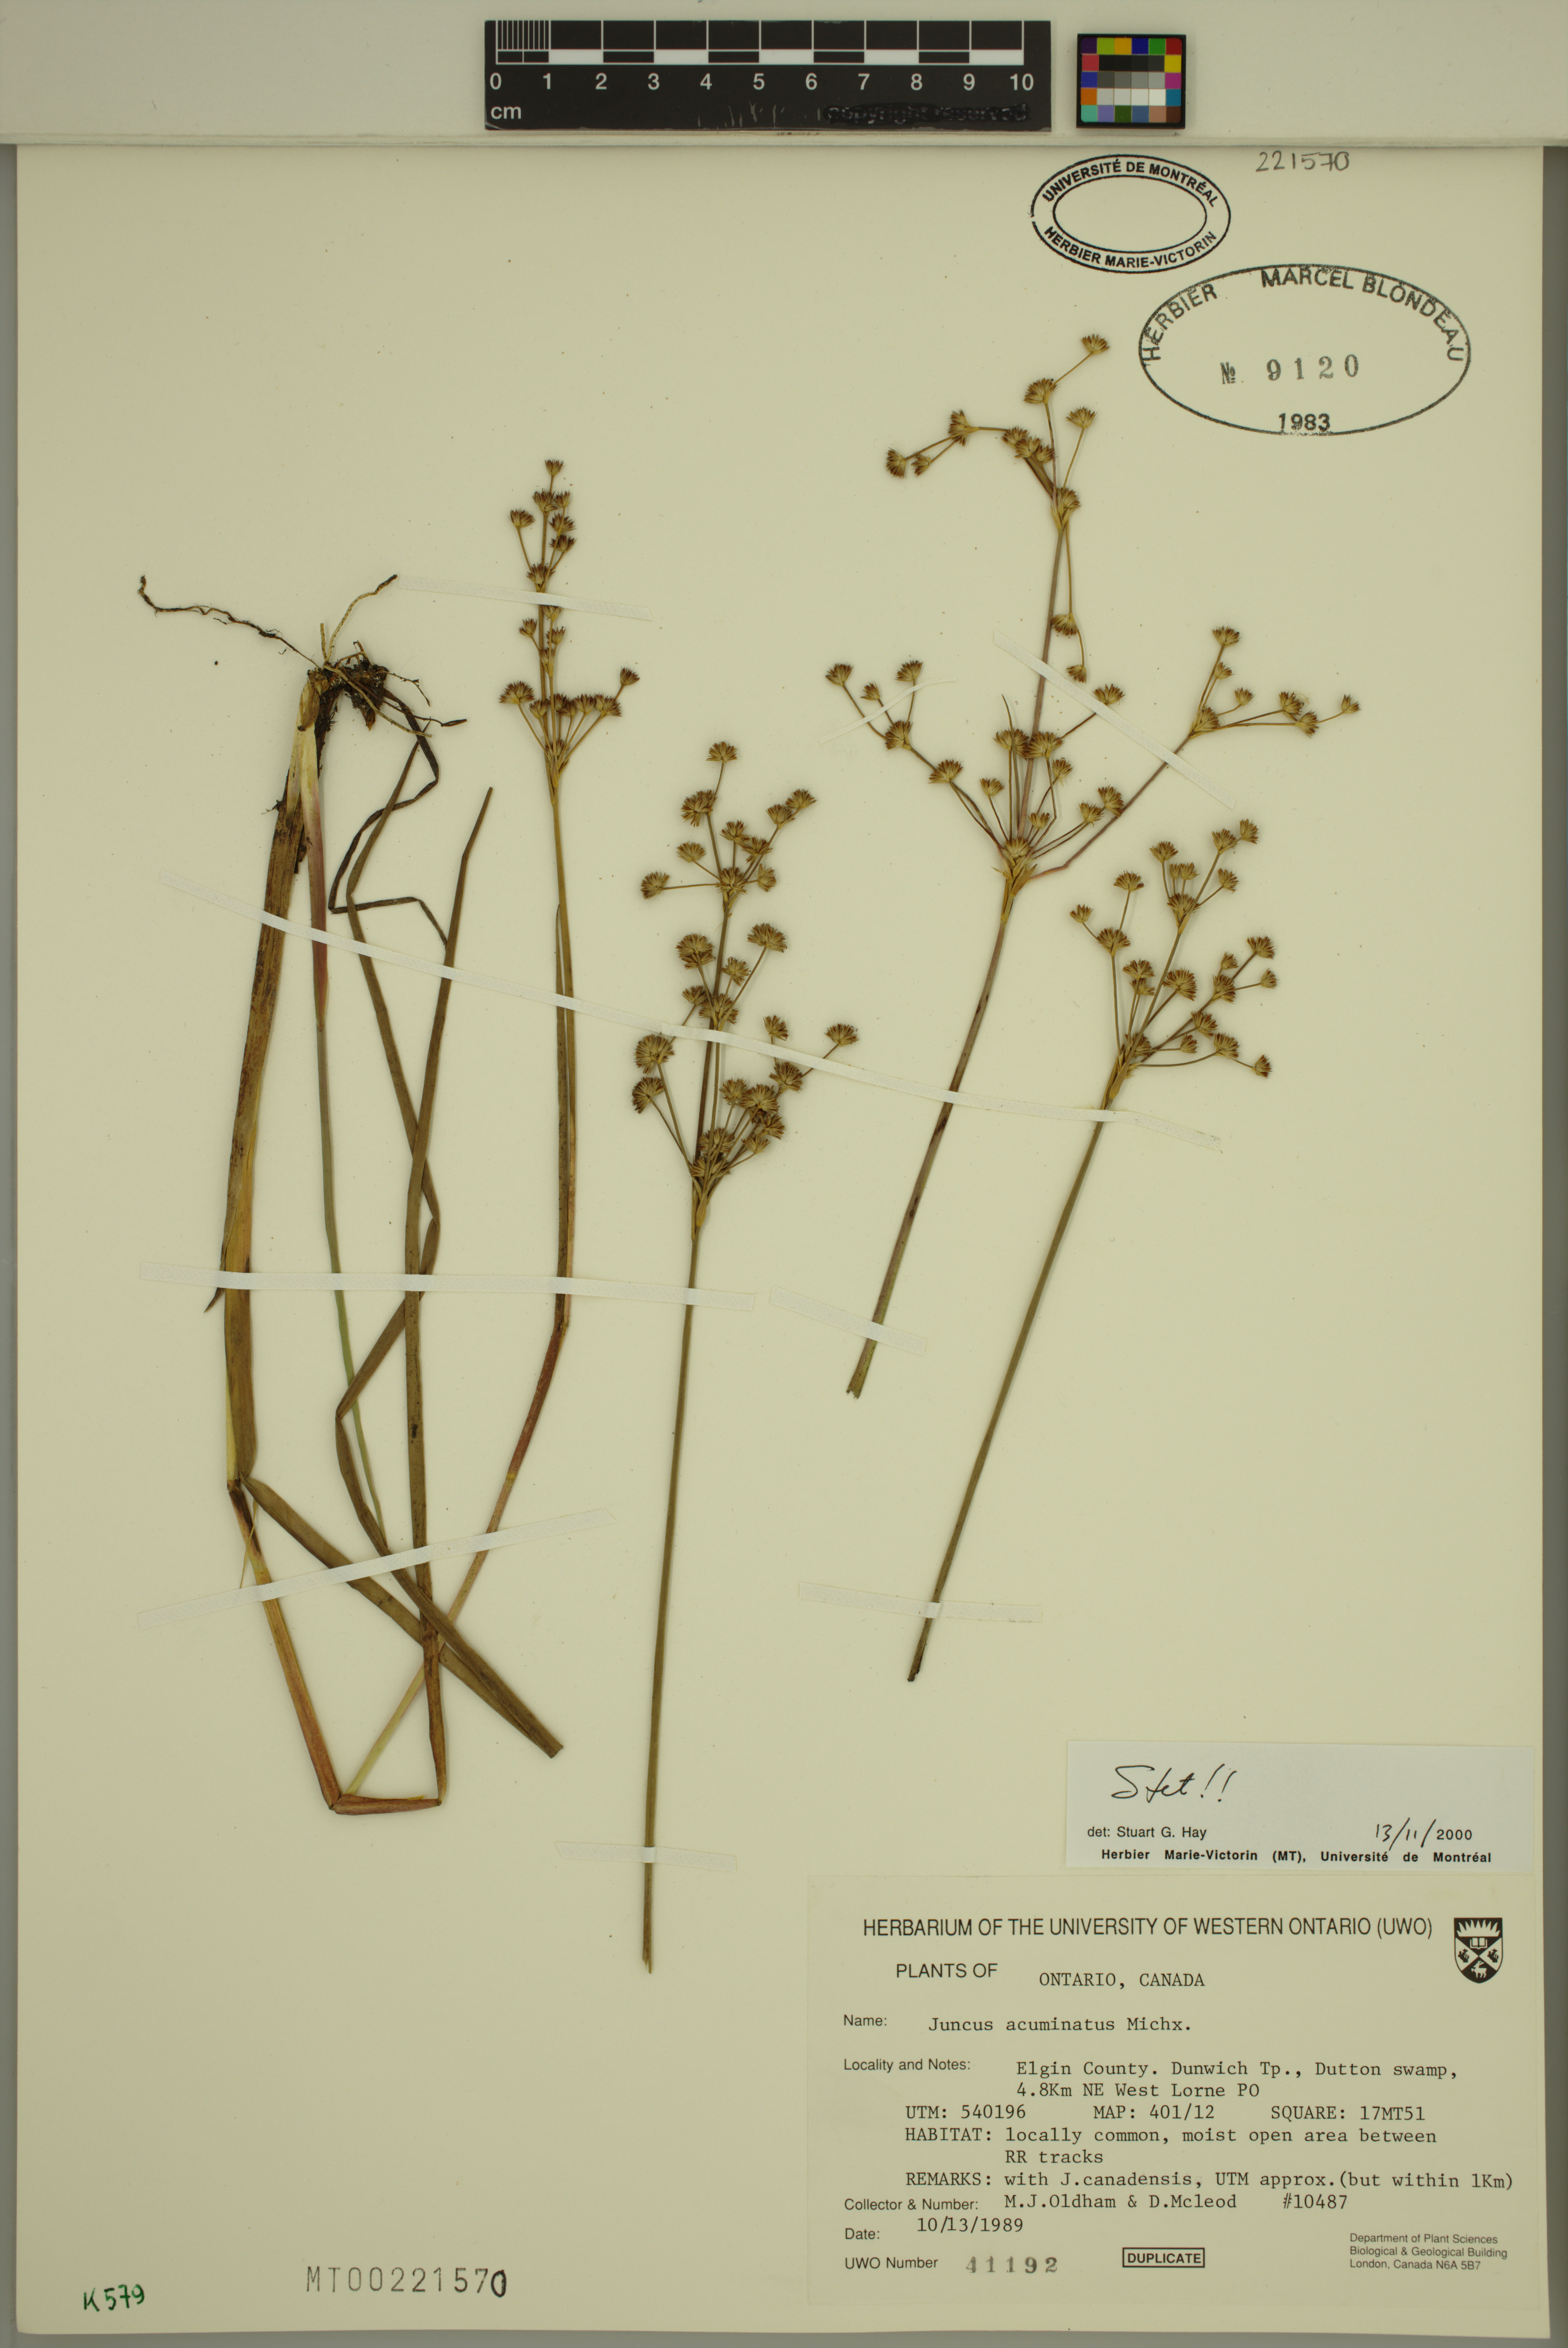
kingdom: Plantae
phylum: Tracheophyta
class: Liliopsida
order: Poales
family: Juncaceae
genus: Juncus
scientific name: Juncus acuminatus
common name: Knotty-leaved rush
